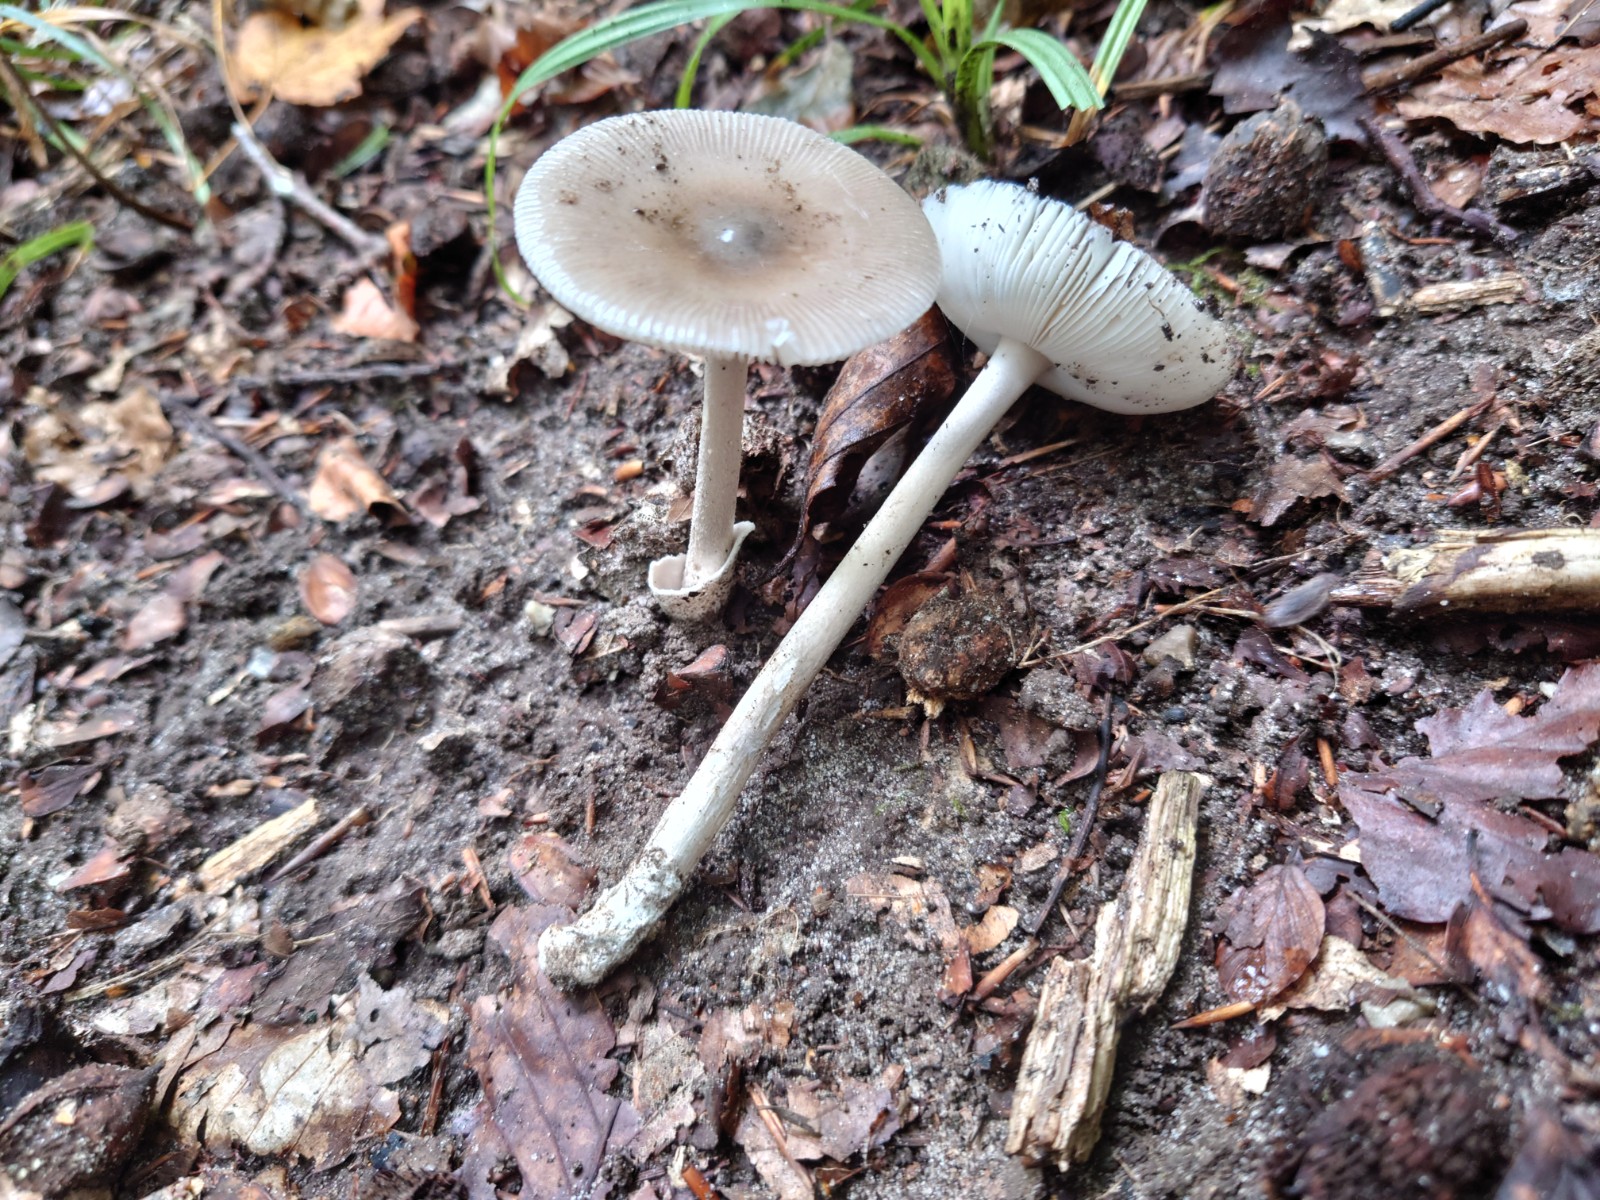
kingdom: Fungi
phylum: Basidiomycota
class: Agaricomycetes
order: Agaricales
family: Amanitaceae
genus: Amanita
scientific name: Amanita vaginata
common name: grå kam-fluesvamp
